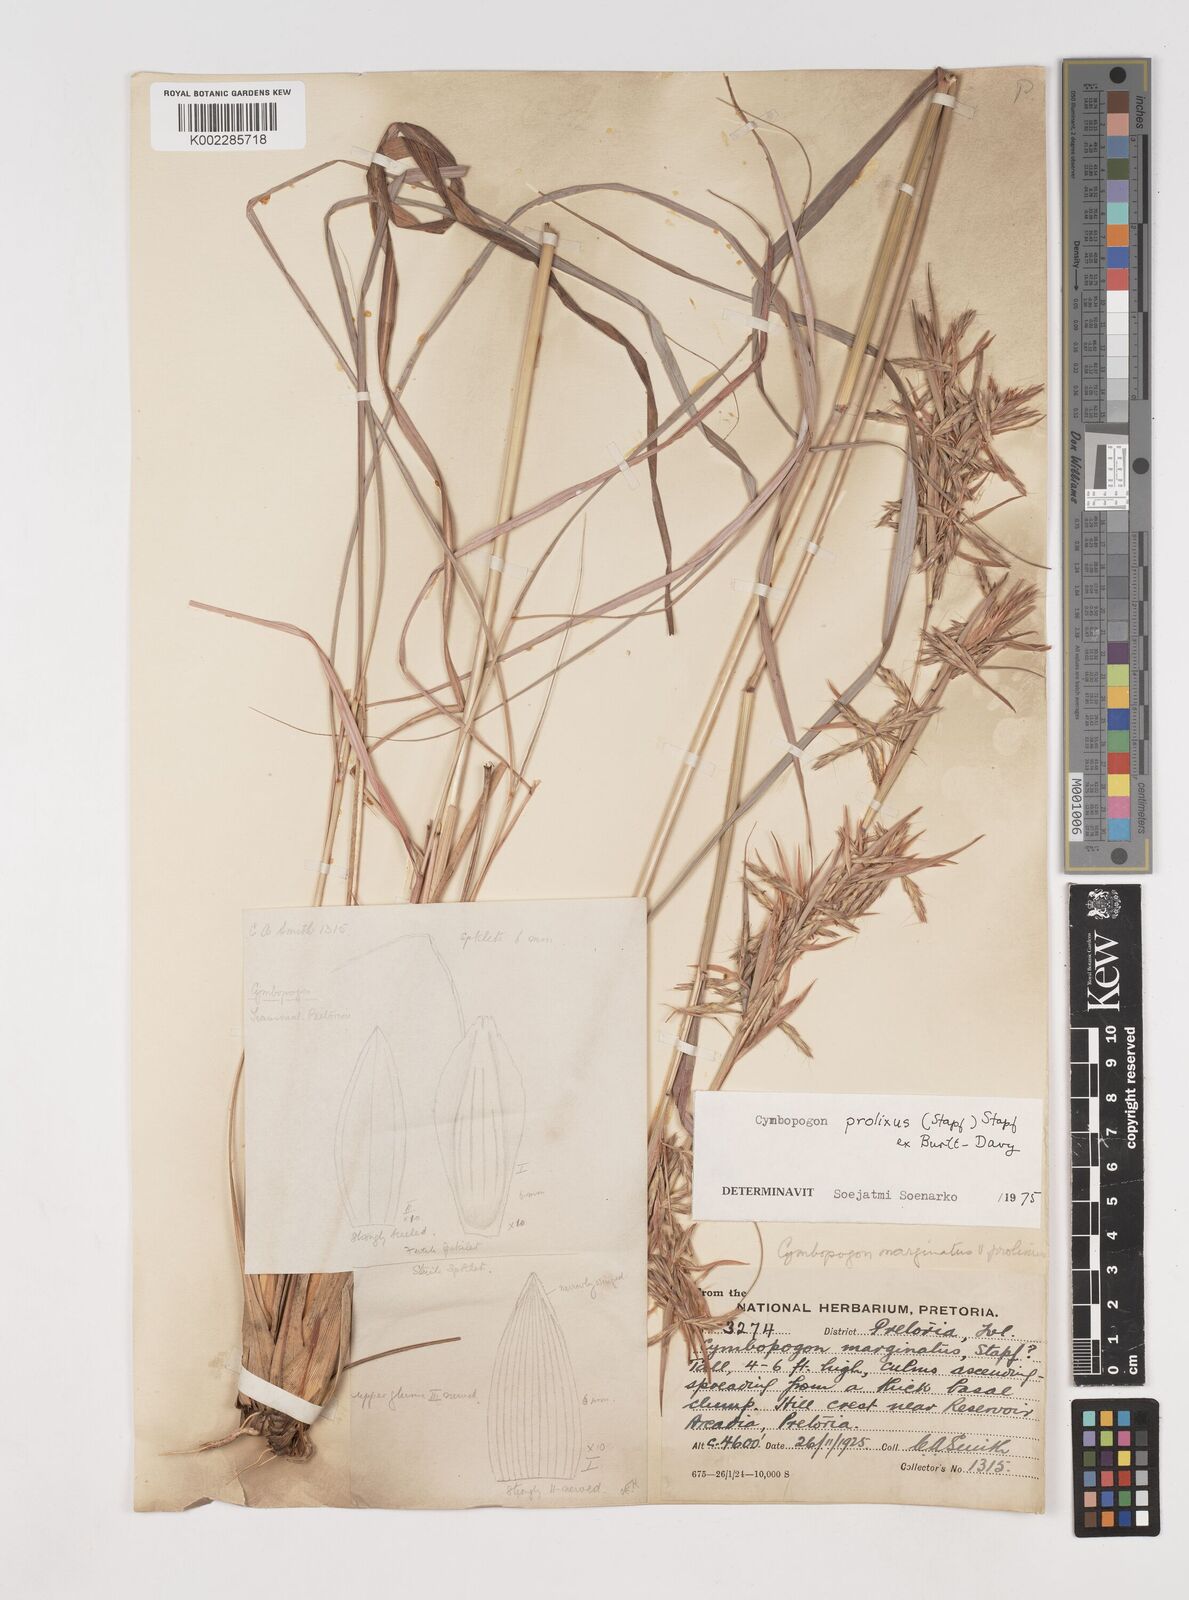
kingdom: Plantae
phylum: Tracheophyta
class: Liliopsida
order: Poales
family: Poaceae
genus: Cymbopogon
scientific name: Cymbopogon dieterlenii
